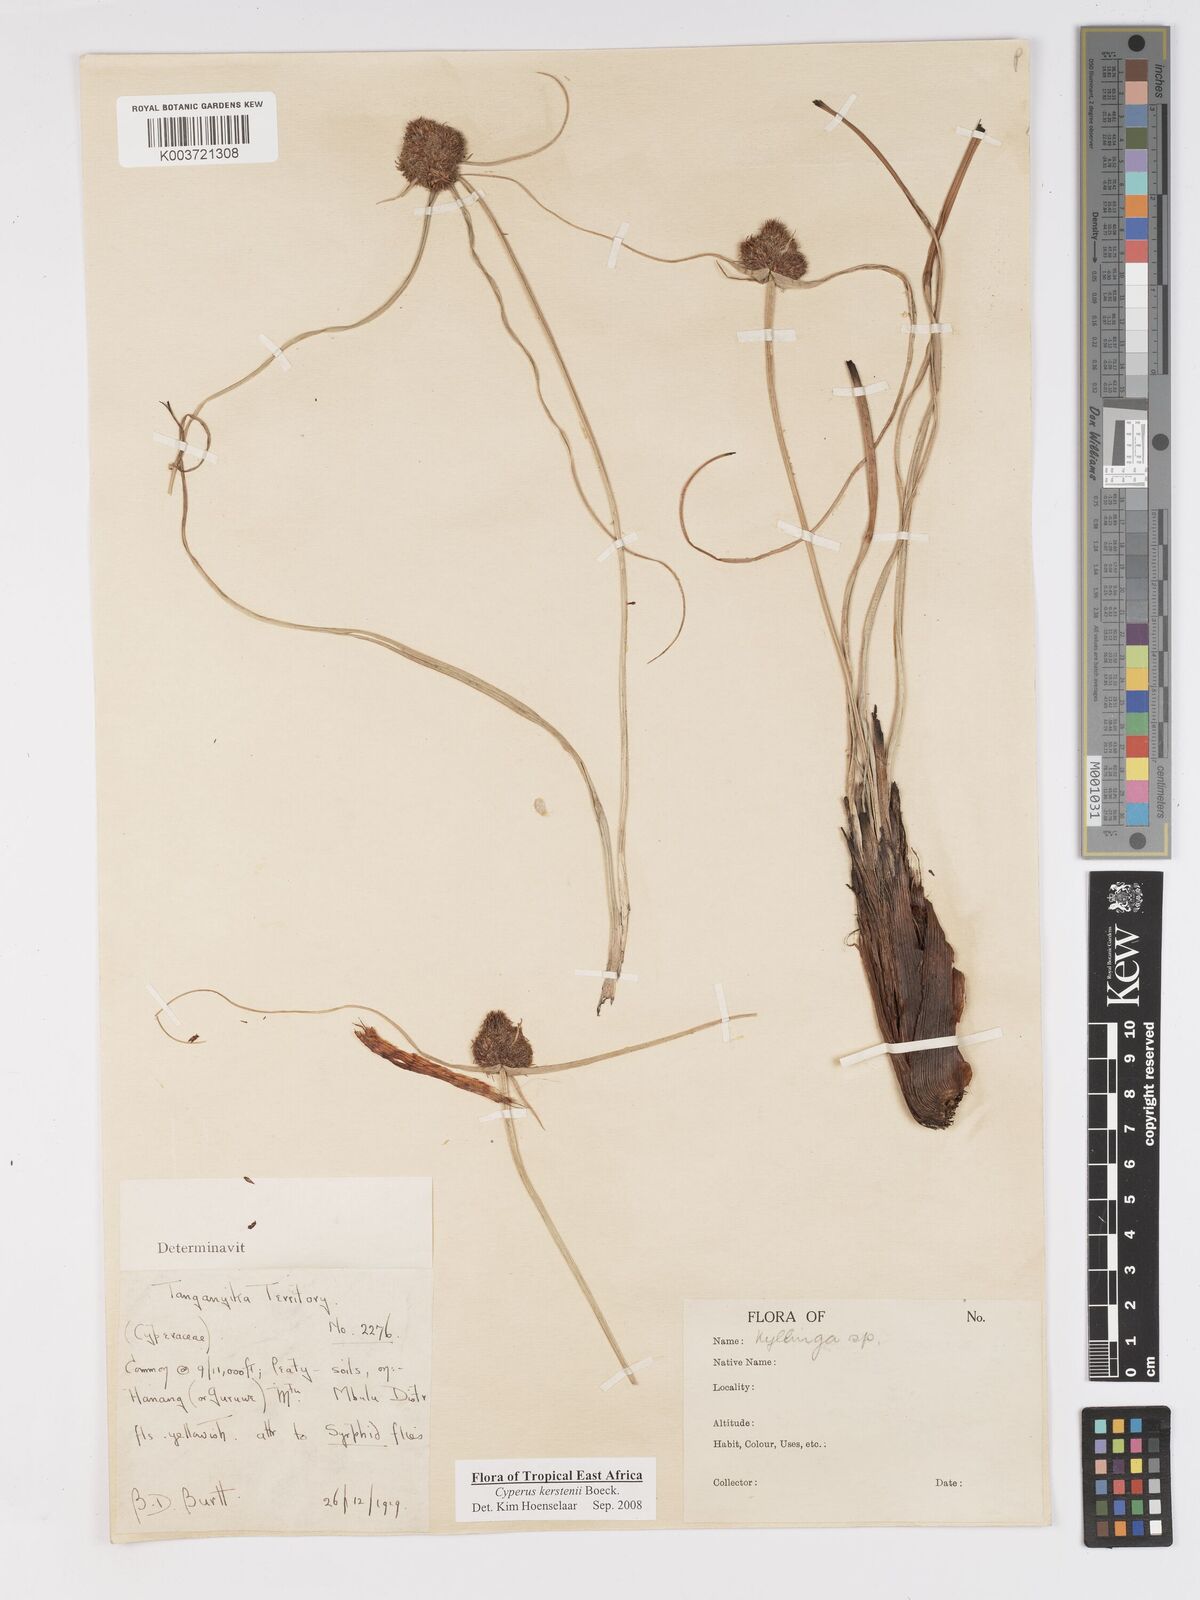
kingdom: Plantae
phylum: Tracheophyta
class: Liliopsida
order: Poales
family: Cyperaceae
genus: Cyperus
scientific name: Cyperus kerstenii
